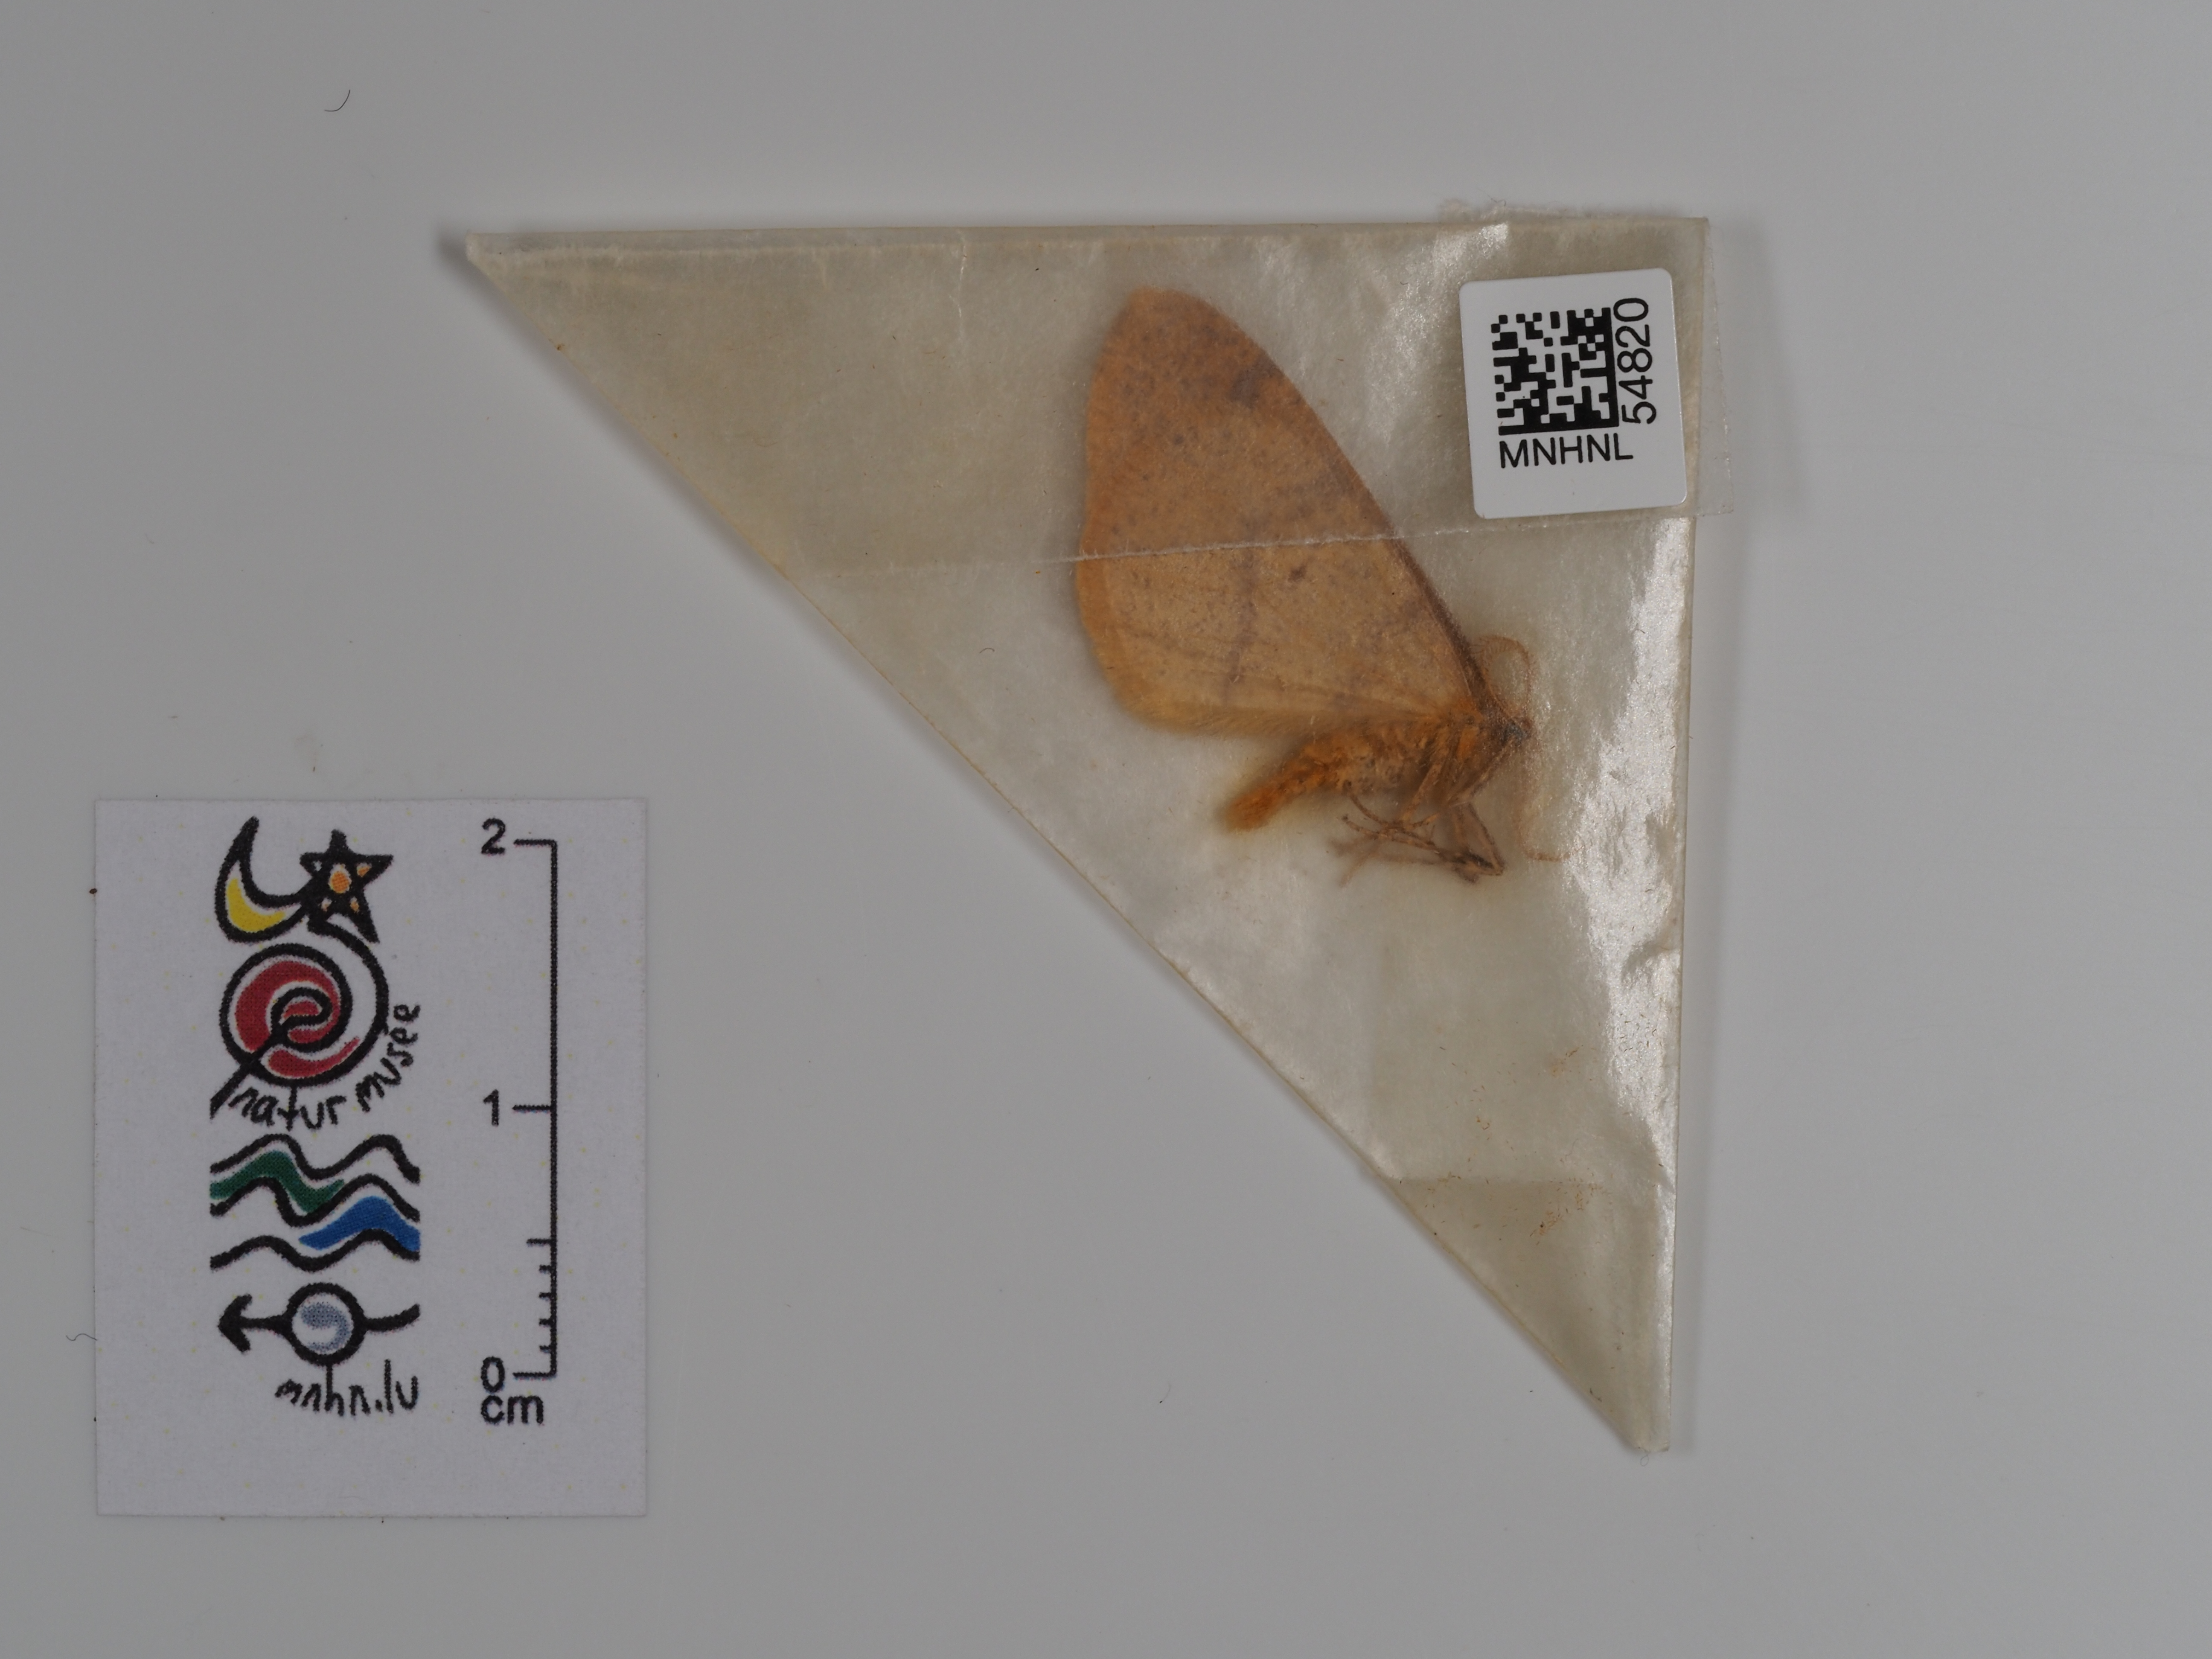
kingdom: Animalia
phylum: Arthropoda
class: Insecta
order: Lepidoptera
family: Geometridae
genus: Agriopis
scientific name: Agriopis aurantiaria
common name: Scarce umber
